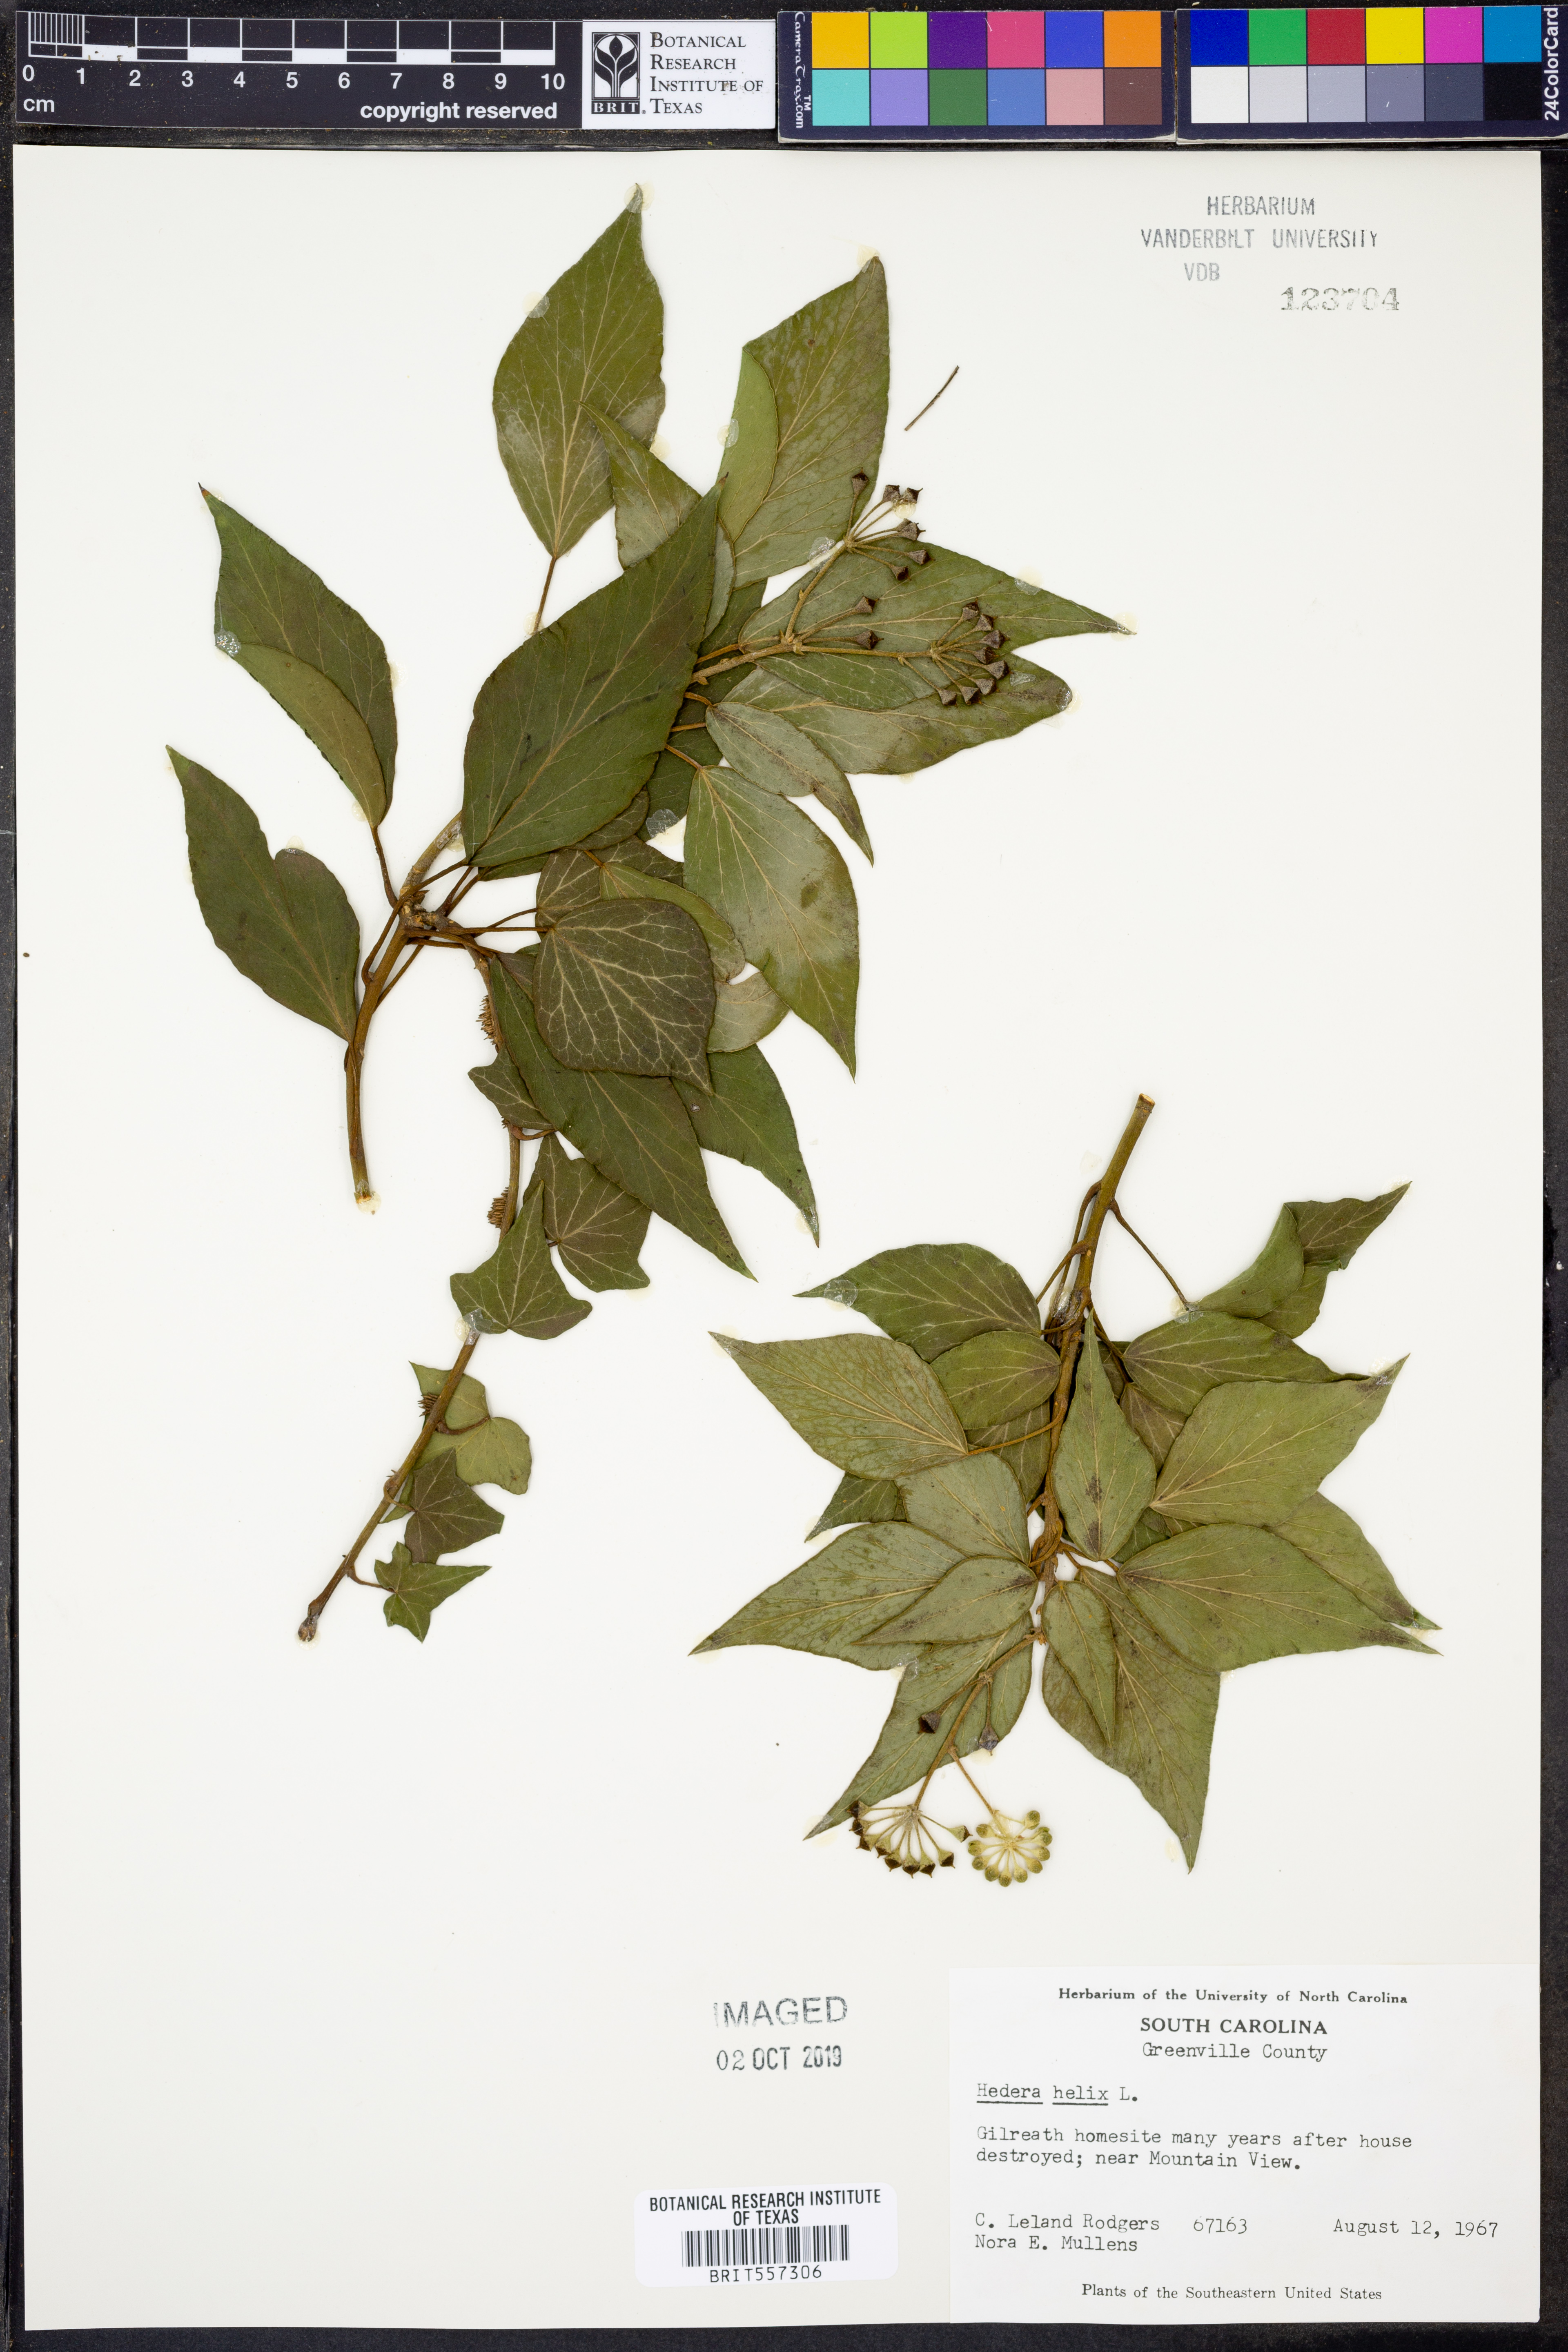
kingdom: Plantae
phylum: Tracheophyta
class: Magnoliopsida
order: Apiales
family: Araliaceae
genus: Hedera
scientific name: Hedera helix
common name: Ivy
